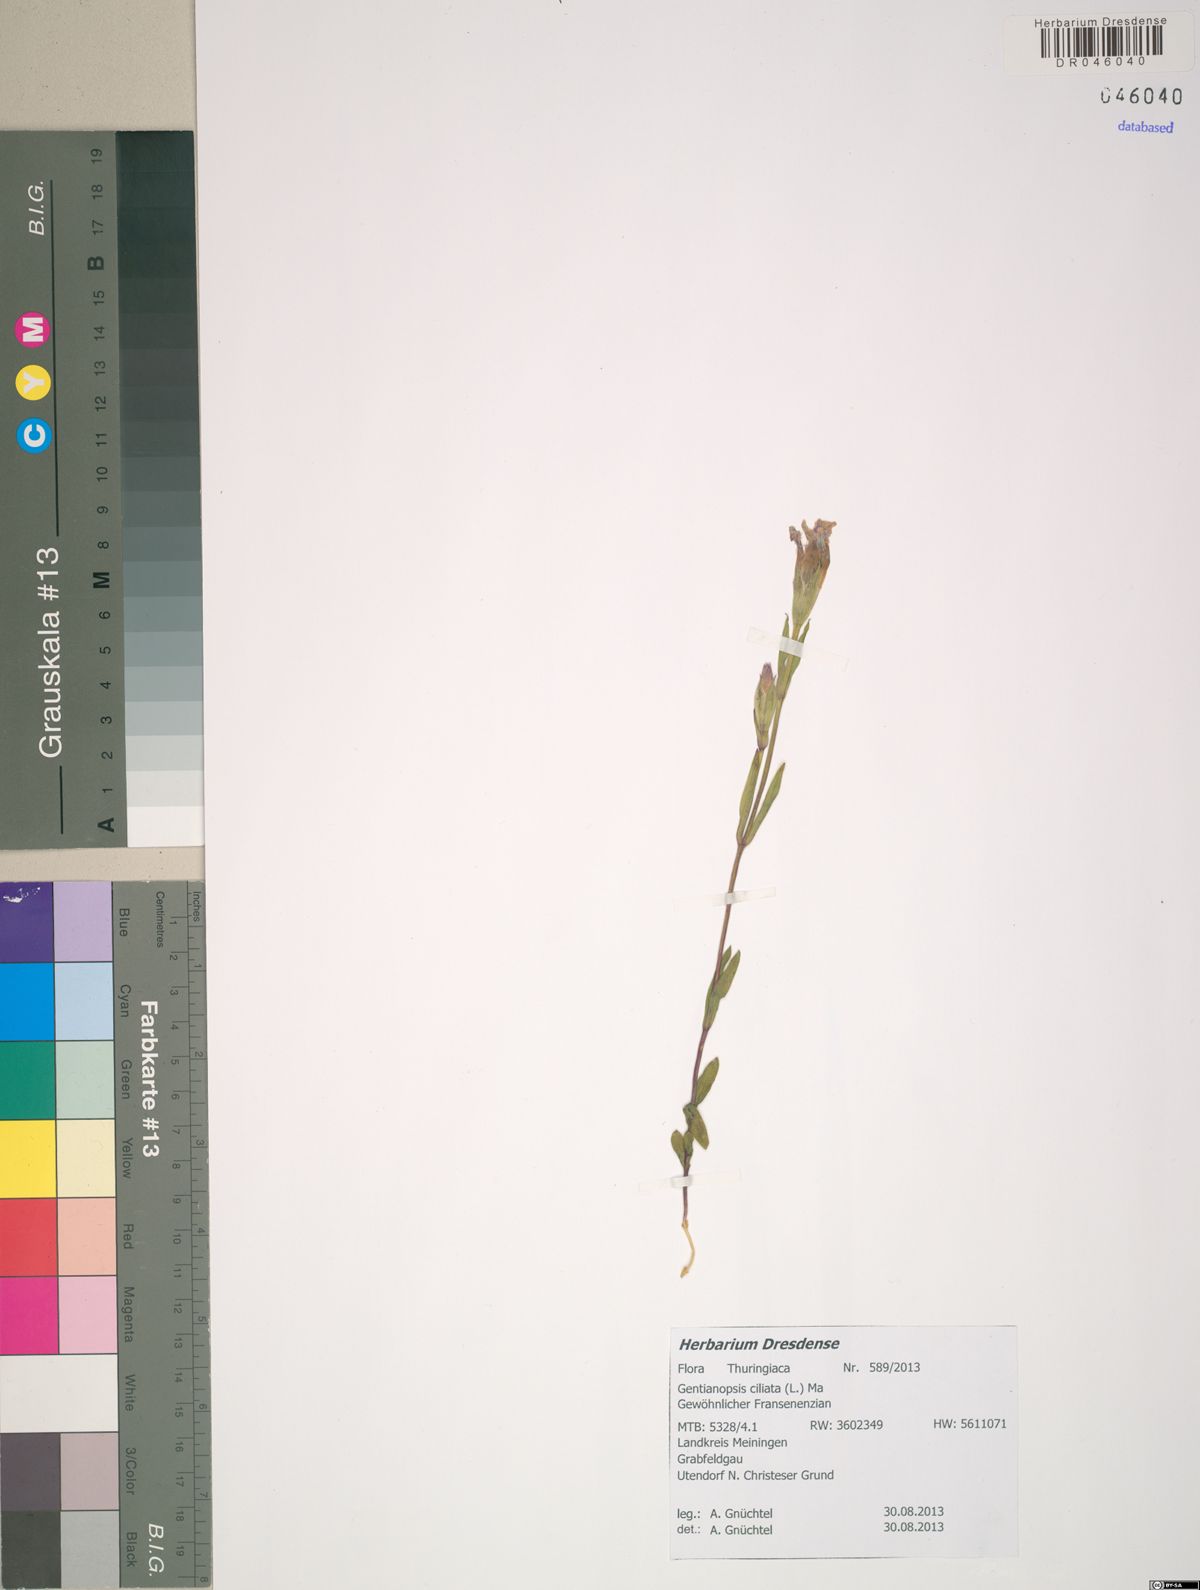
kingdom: Plantae
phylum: Tracheophyta
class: Magnoliopsida
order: Gentianales
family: Gentianaceae
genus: Gentianopsis
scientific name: Gentianopsis ciliata
